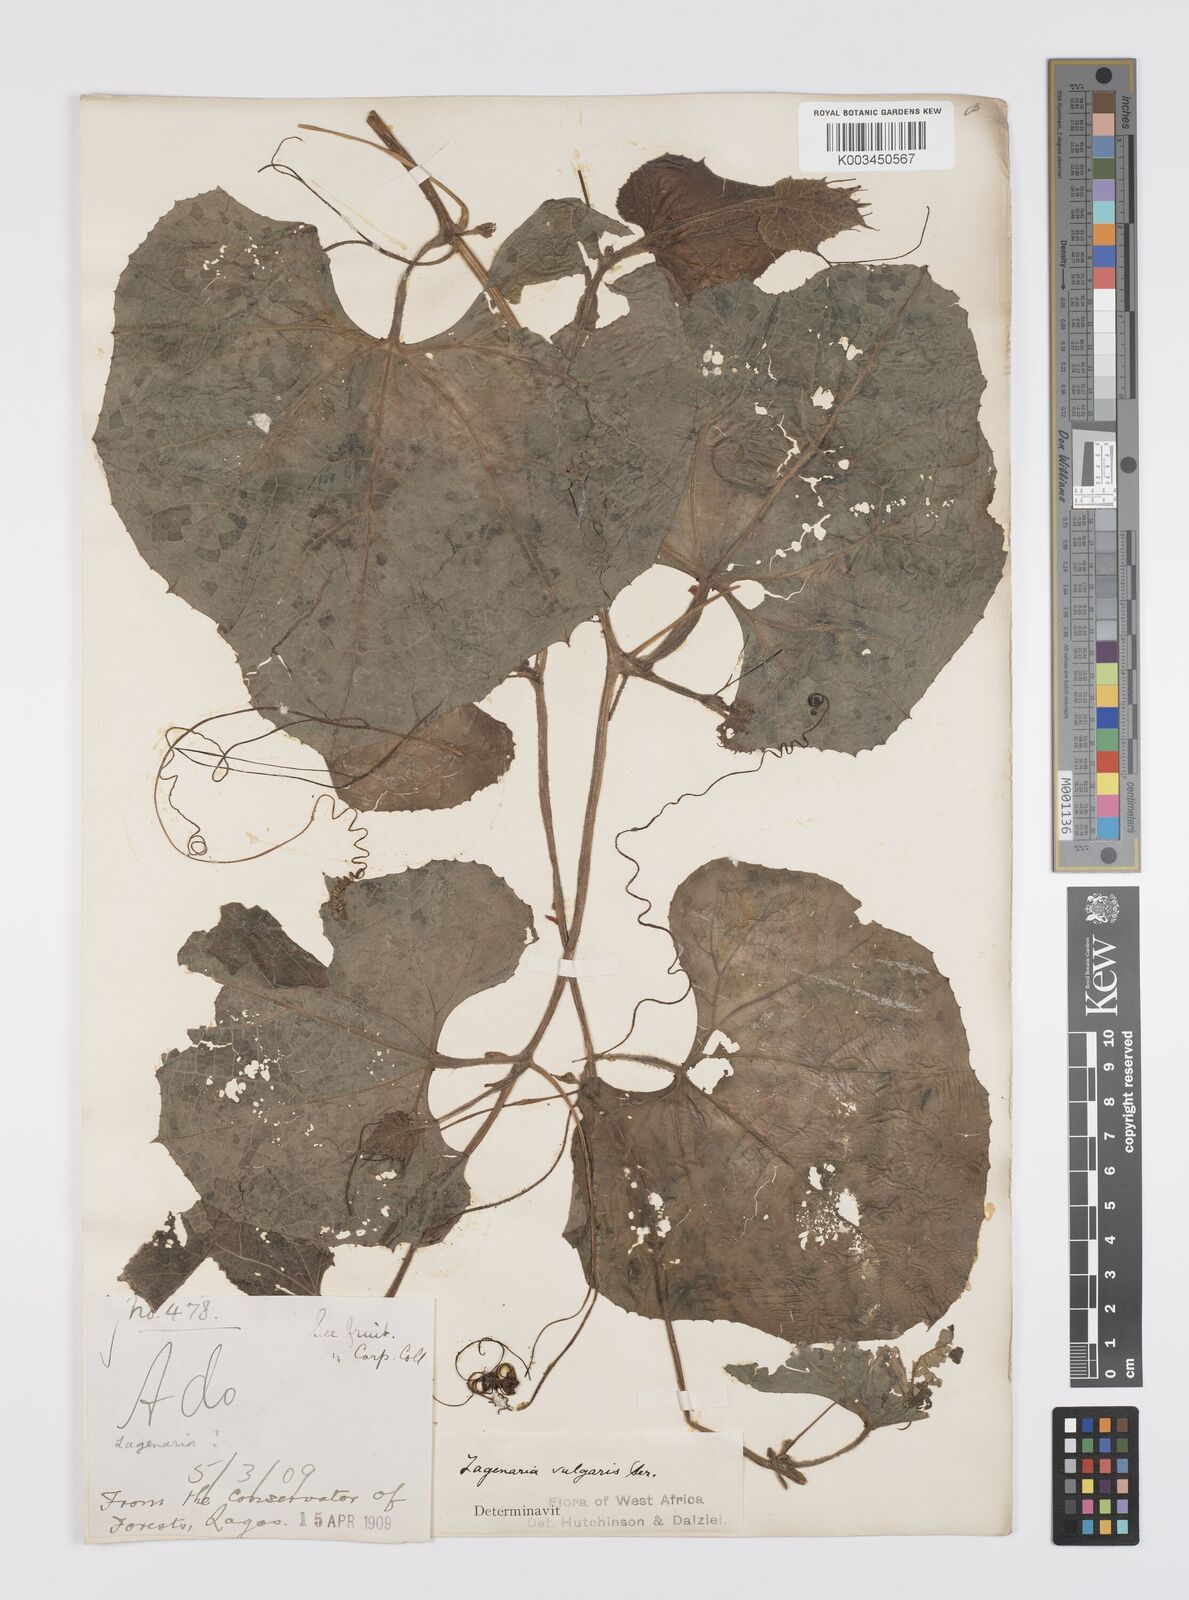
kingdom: Plantae
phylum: Tracheophyta
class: Magnoliopsida
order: Cucurbitales
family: Cucurbitaceae
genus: Lagenaria
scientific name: Lagenaria siceraria
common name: Bottle gourd
